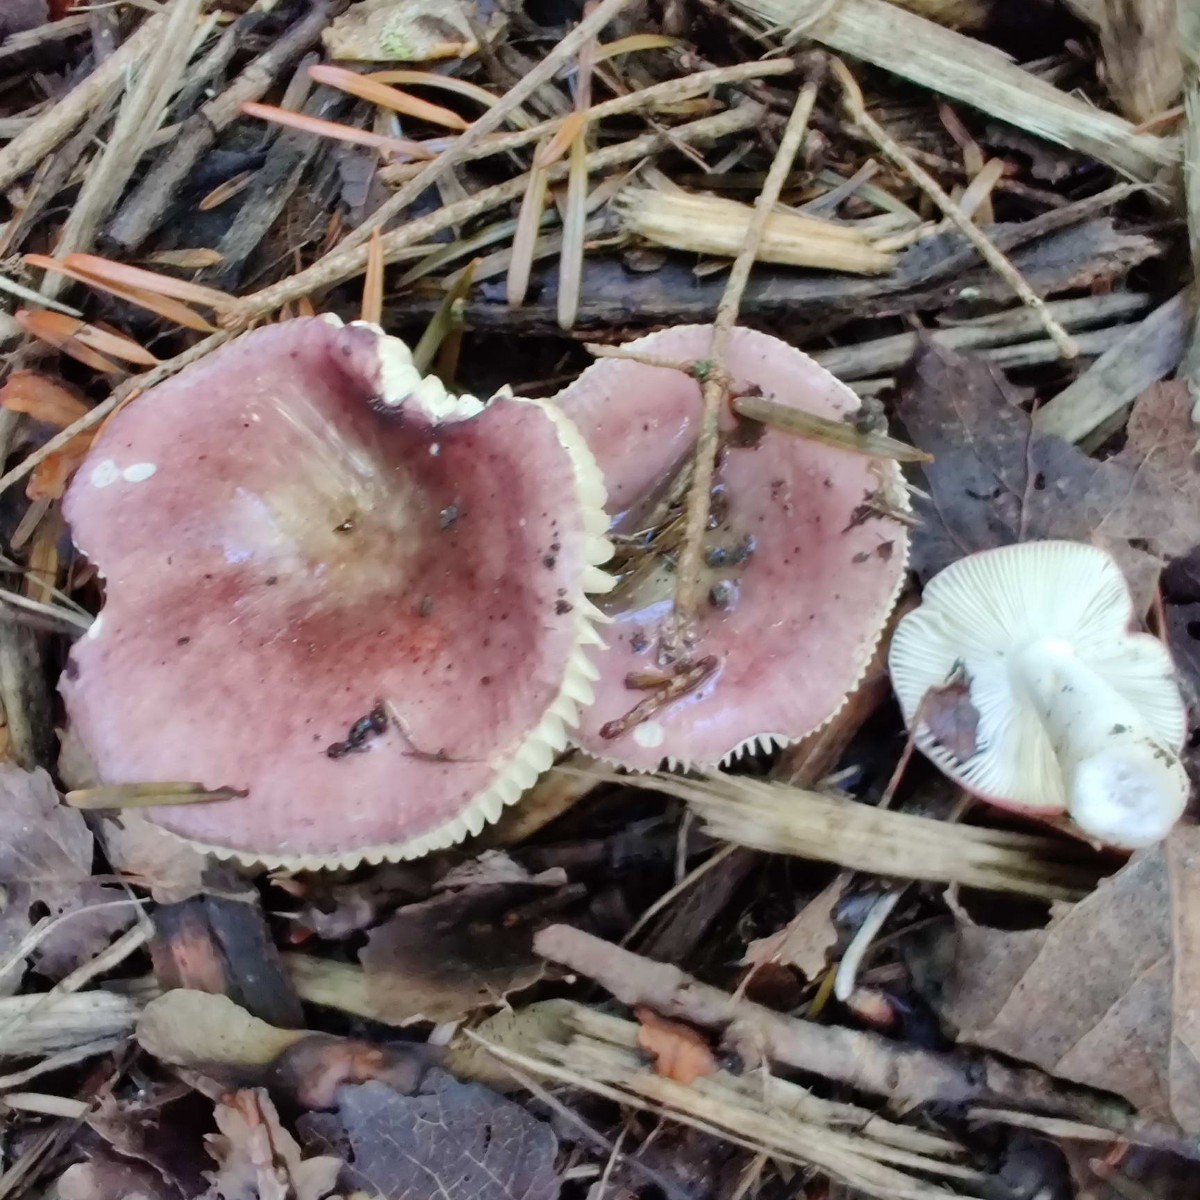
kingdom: Fungi
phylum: Basidiomycota
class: Agaricomycetes
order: Russulales
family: Russulaceae
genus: Russula
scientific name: Russula pelargonia
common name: pelargonie-skørhat
